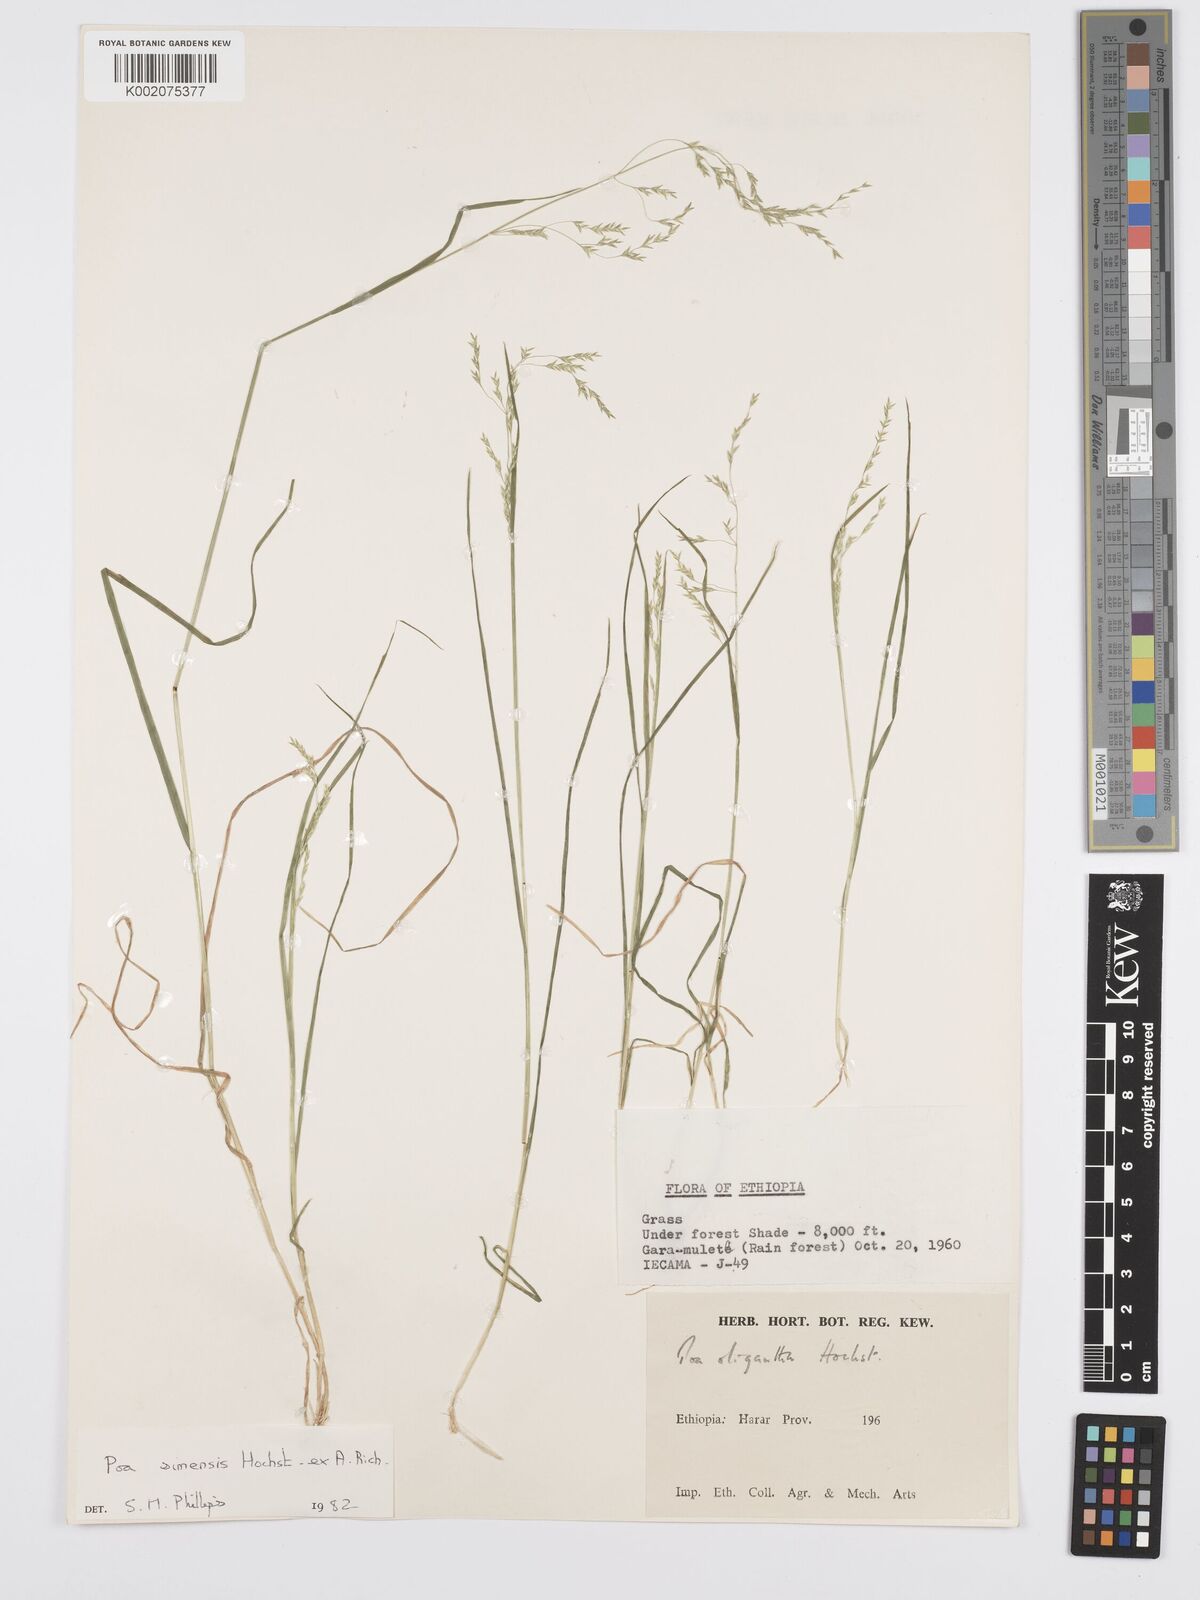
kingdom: Plantae
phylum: Tracheophyta
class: Liliopsida
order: Poales
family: Poaceae
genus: Poa
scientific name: Poa simensis
